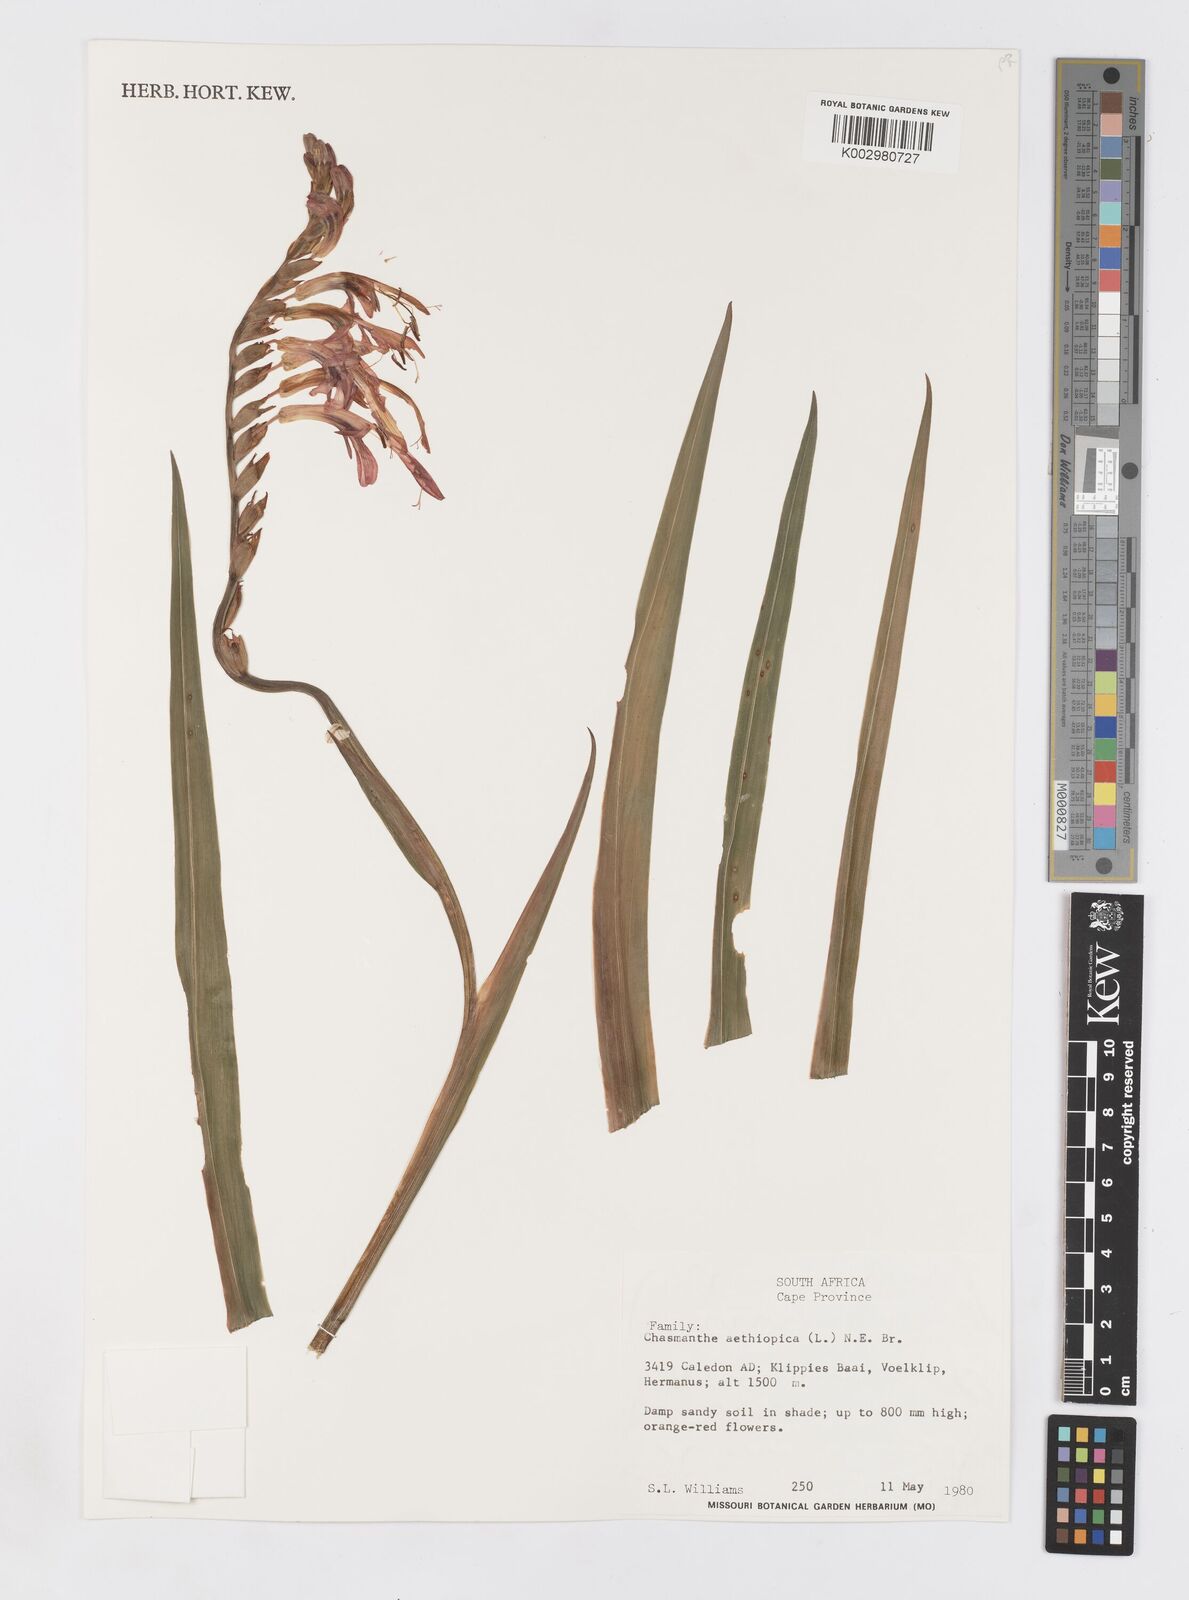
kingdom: Plantae
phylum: Tracheophyta
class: Liliopsida
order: Asparagales
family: Iridaceae
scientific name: Iridaceae
